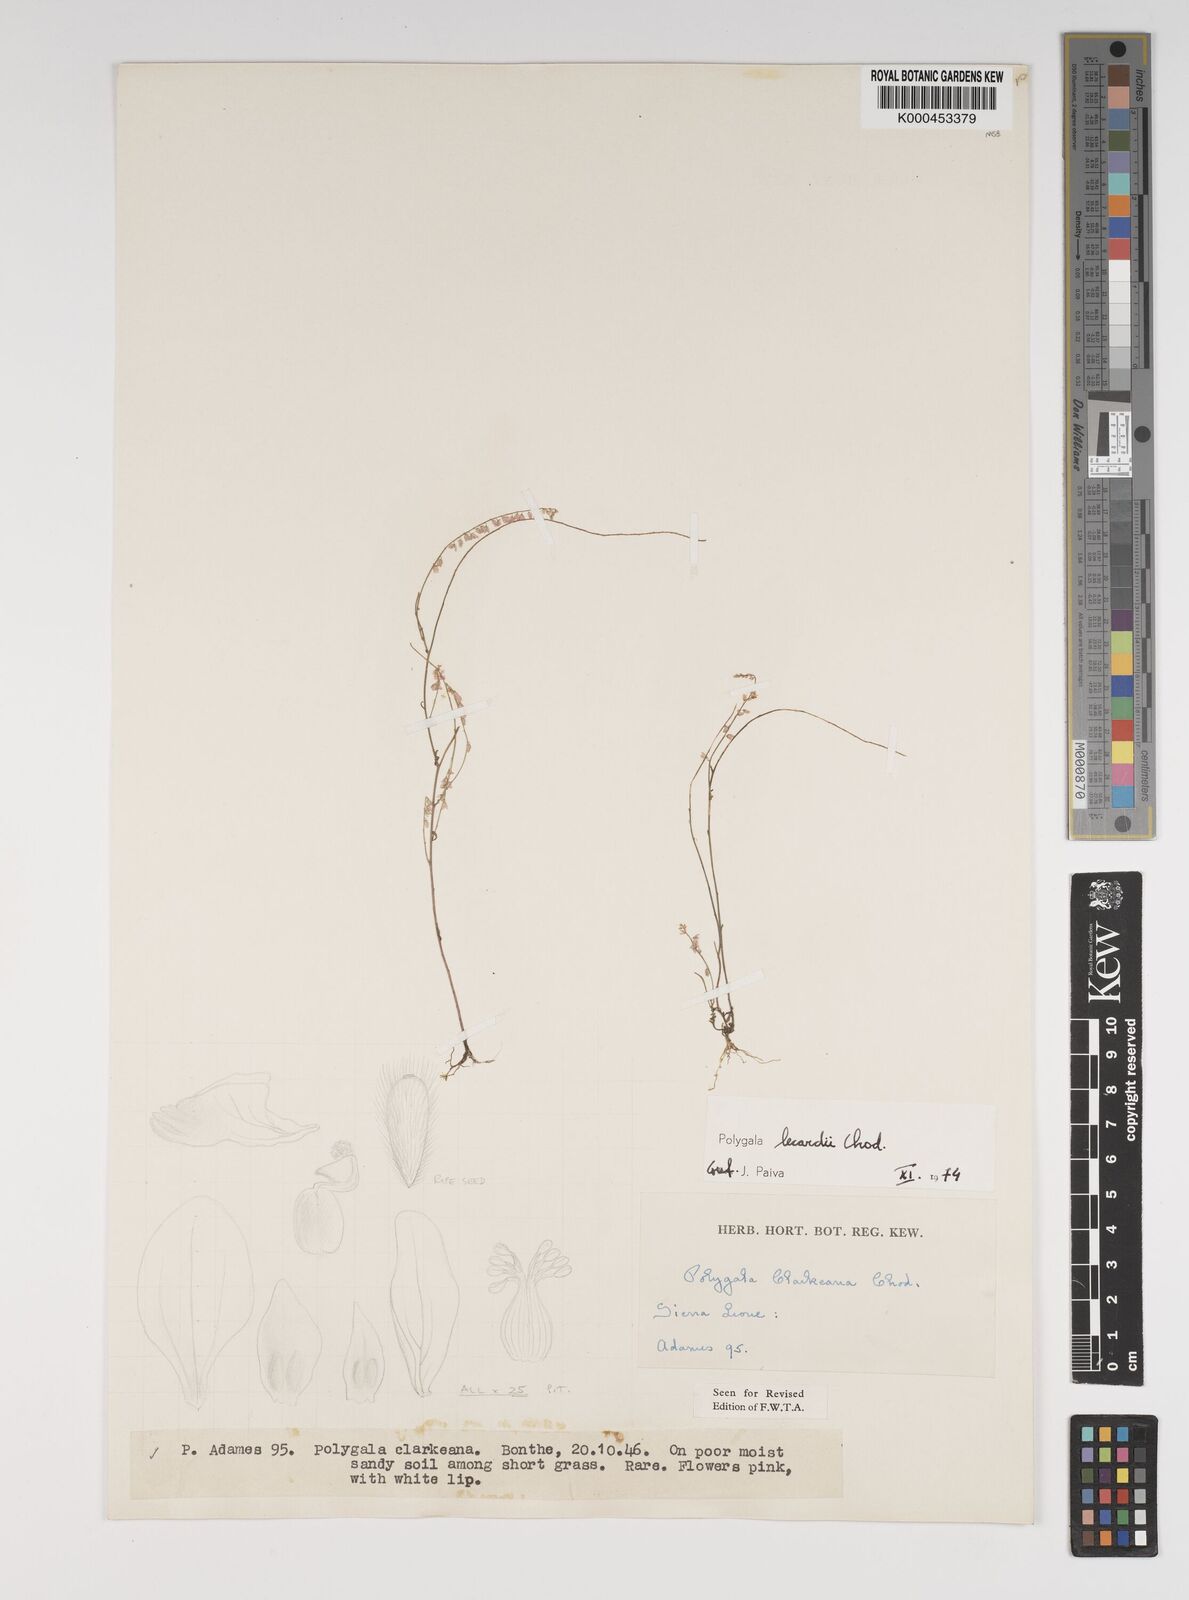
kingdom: Plantae
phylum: Tracheophyta
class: Magnoliopsida
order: Fabales
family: Polygalaceae
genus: Polygala
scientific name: Polygala lecardii
